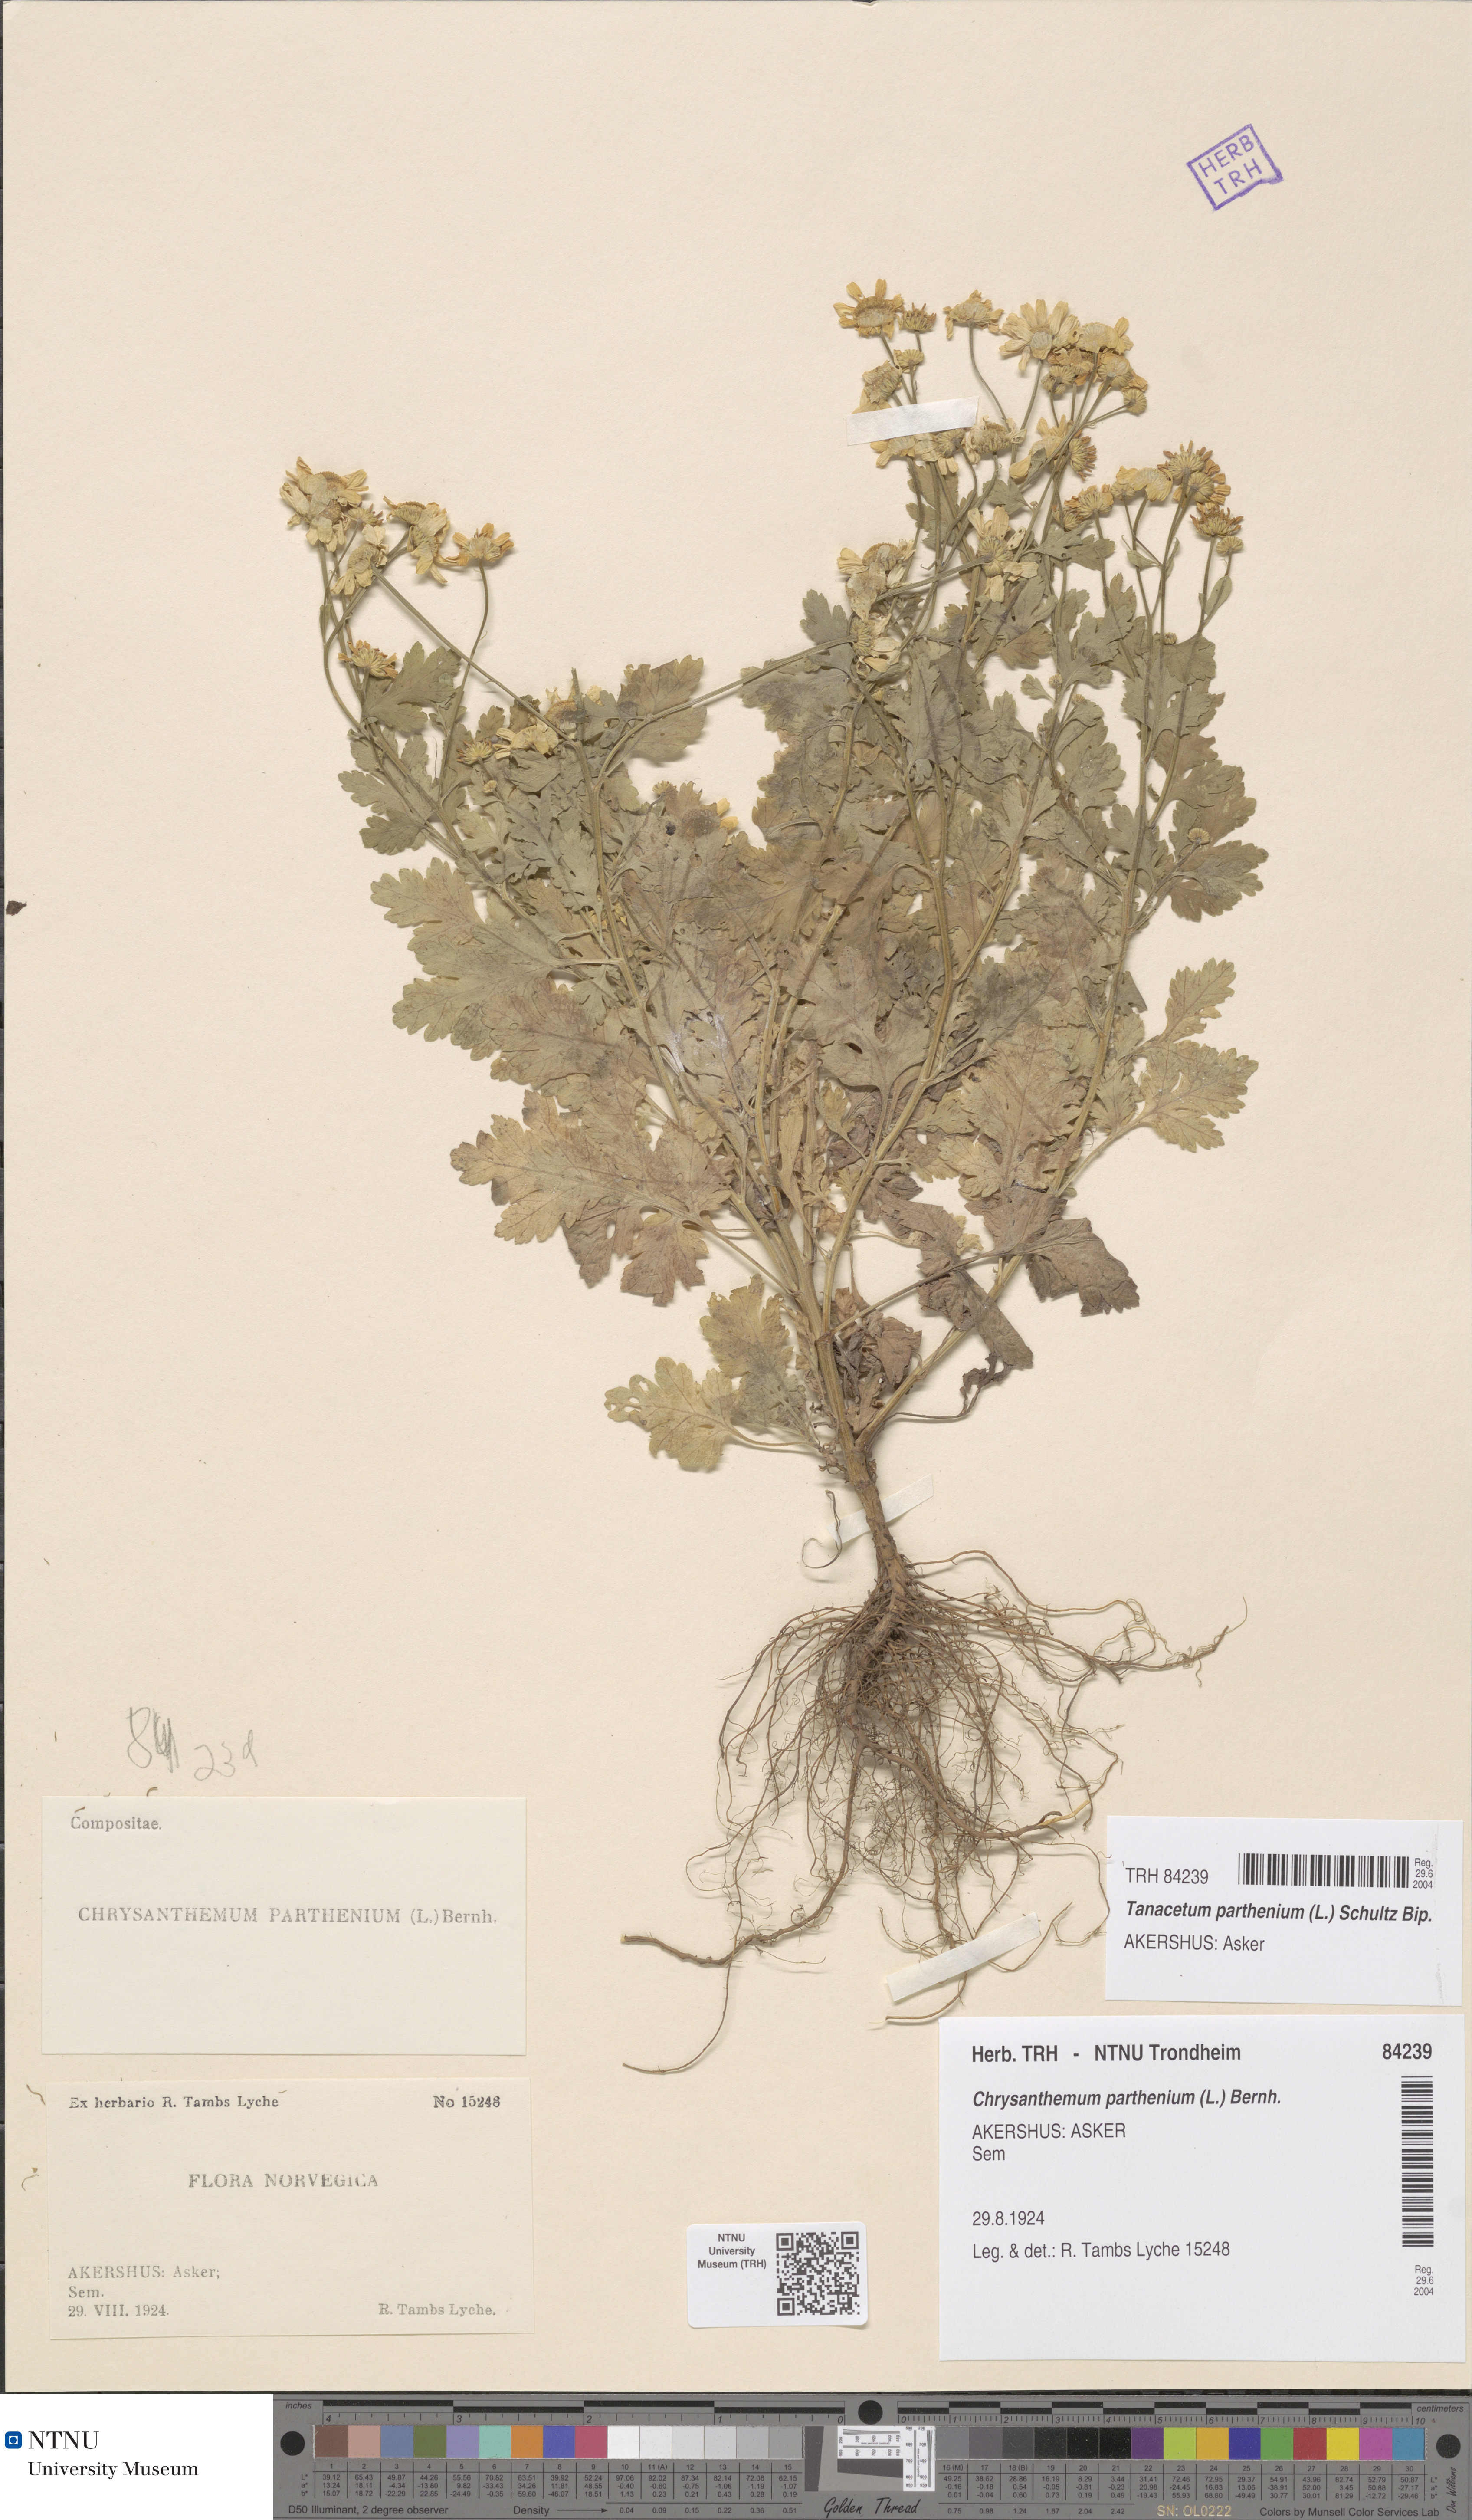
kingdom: Plantae
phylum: Tracheophyta
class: Magnoliopsida
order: Asterales
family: Asteraceae
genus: Tanacetum
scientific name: Tanacetum parthenium
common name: Feverfew
